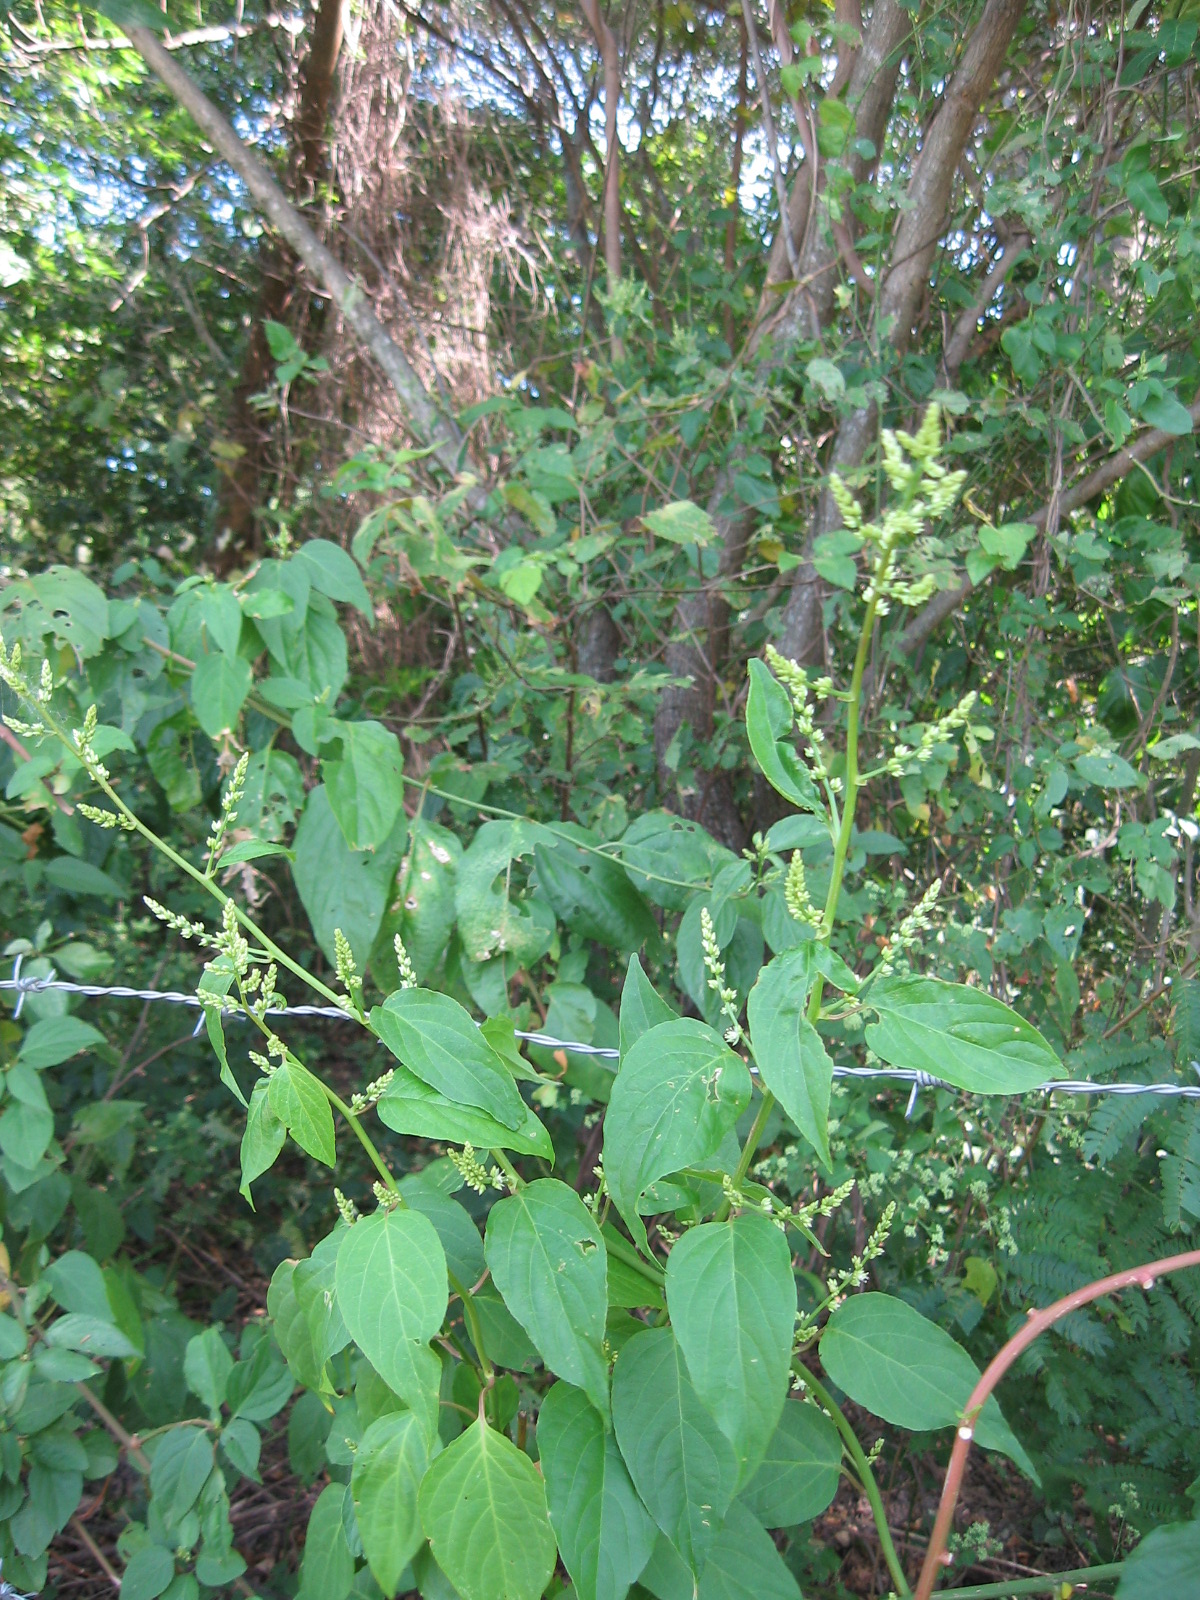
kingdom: Plantae
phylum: Tracheophyta
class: Magnoliopsida
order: Caryophyllales
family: Amaranthaceae
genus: Chamissoa
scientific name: Chamissoa altissima
